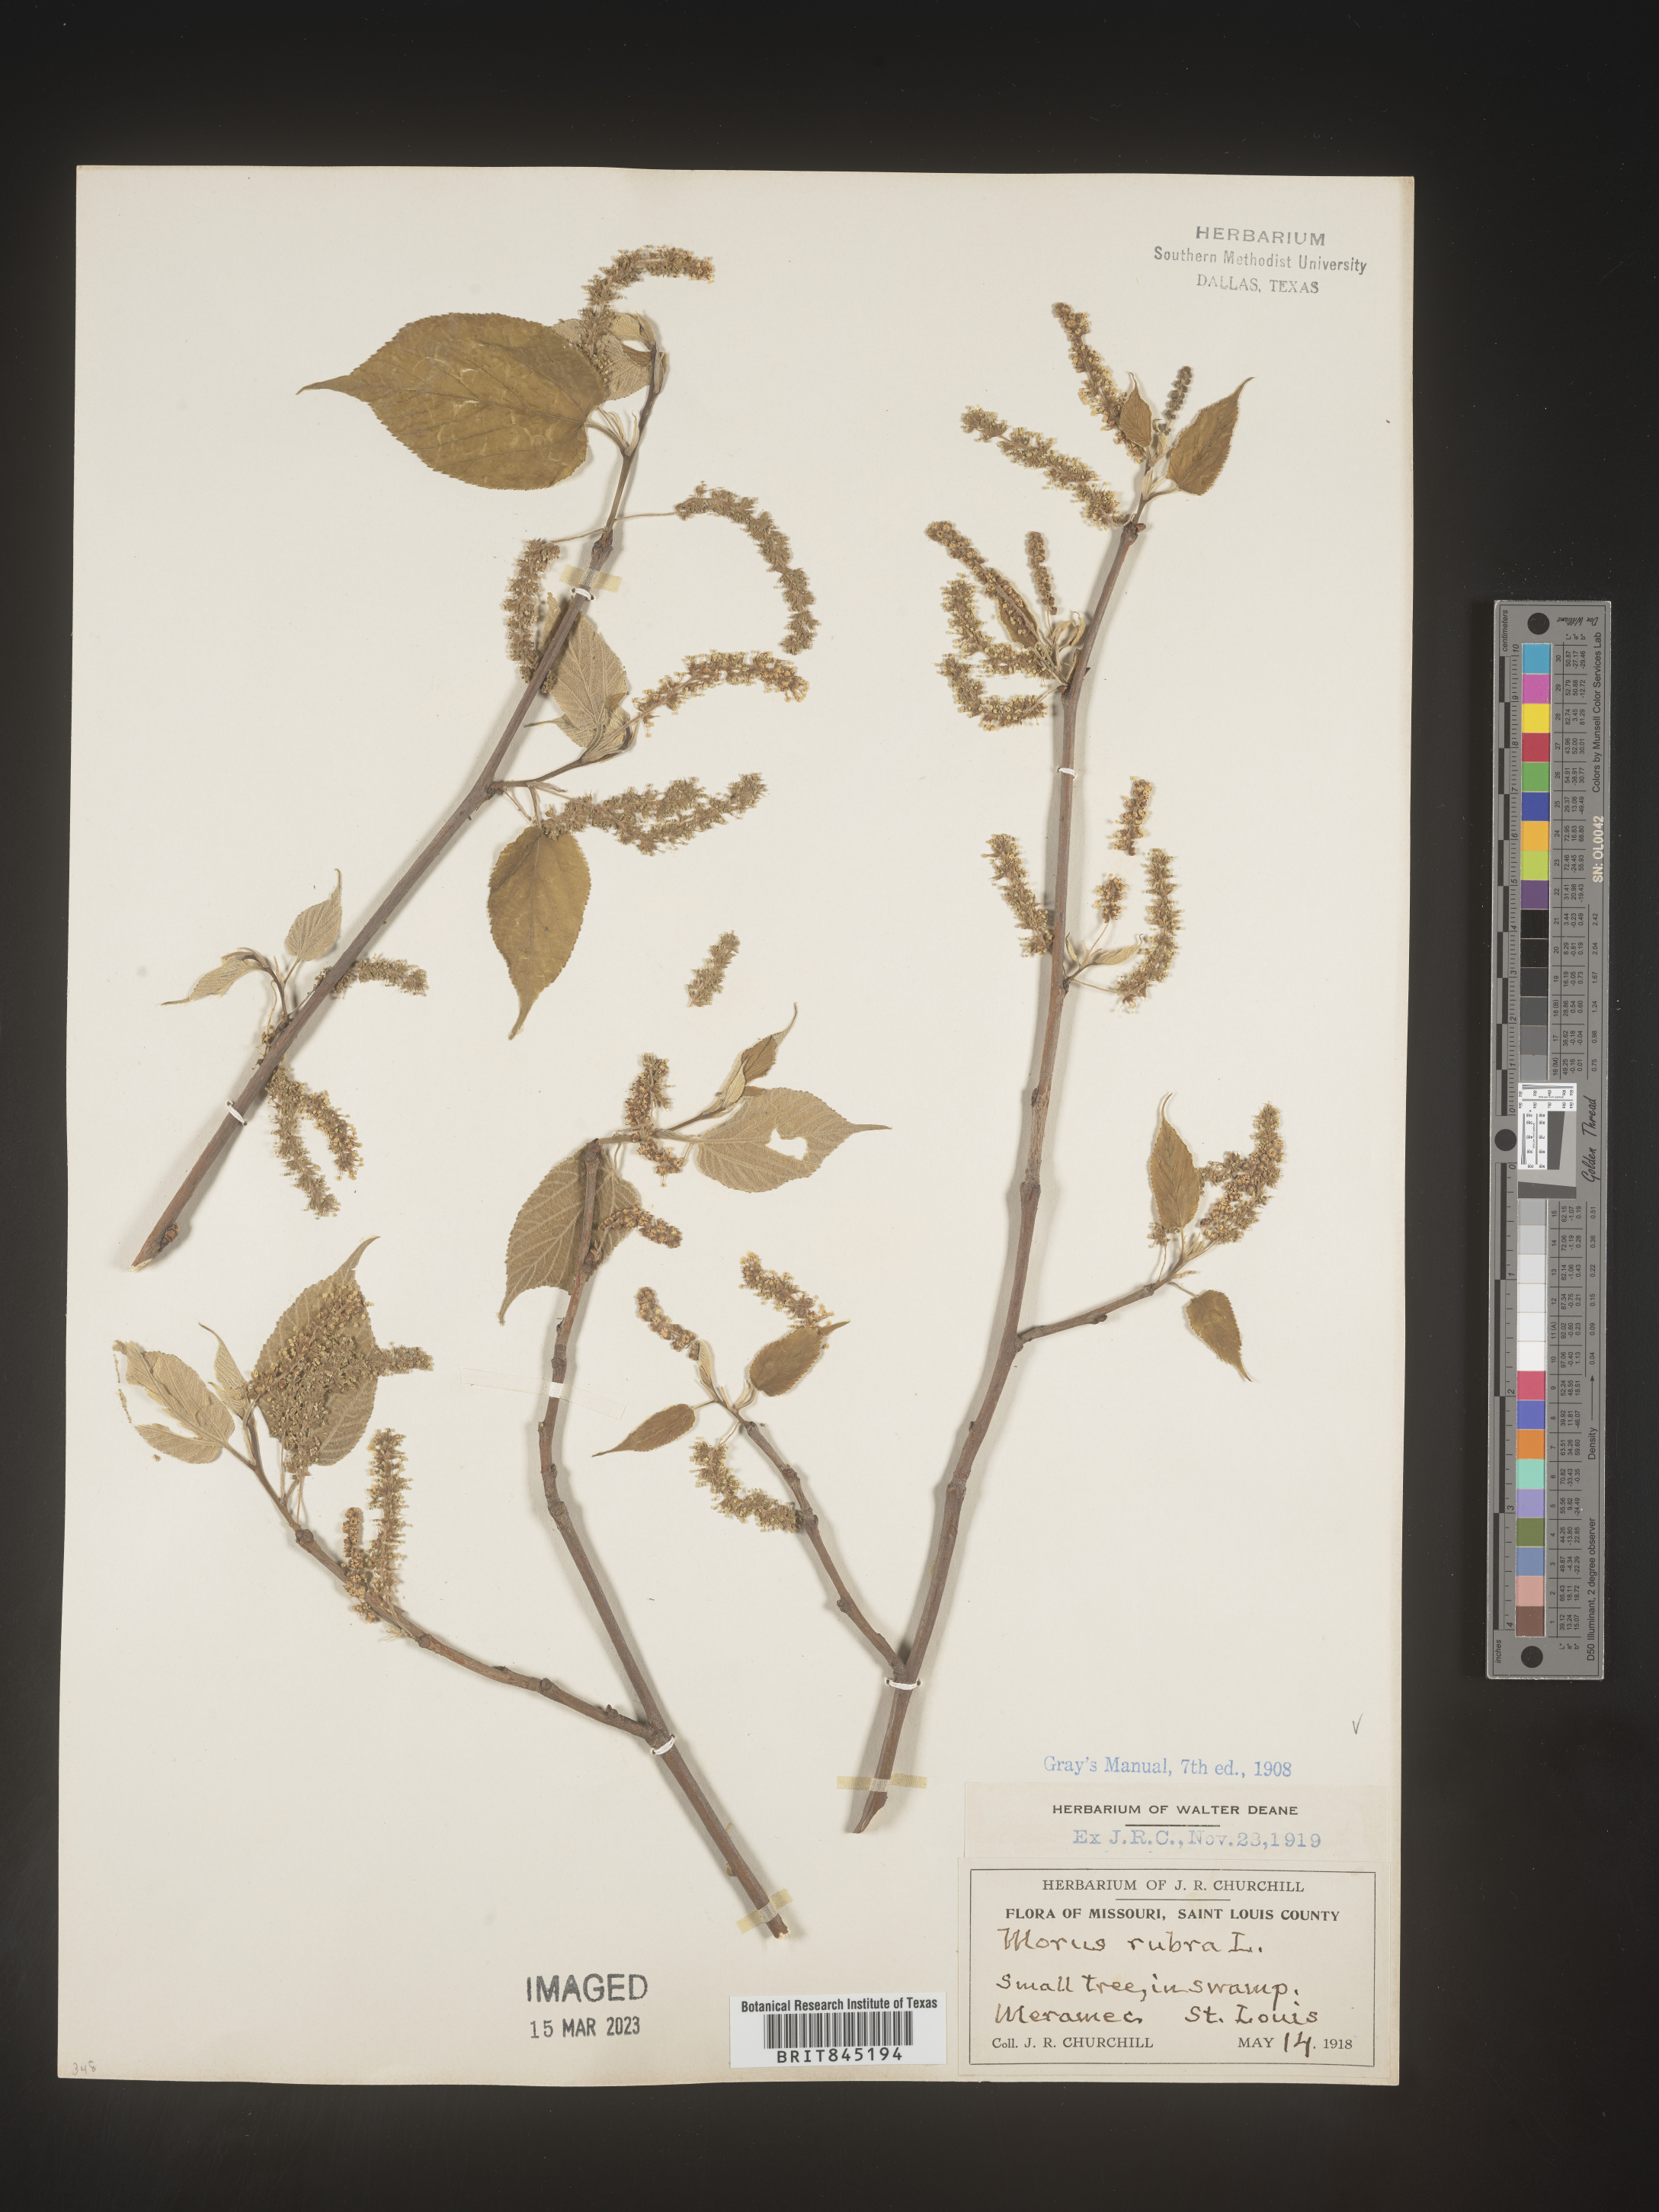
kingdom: Plantae
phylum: Tracheophyta
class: Magnoliopsida
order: Rosales
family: Moraceae
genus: Morus
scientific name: Morus rubra
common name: Red mulberry
